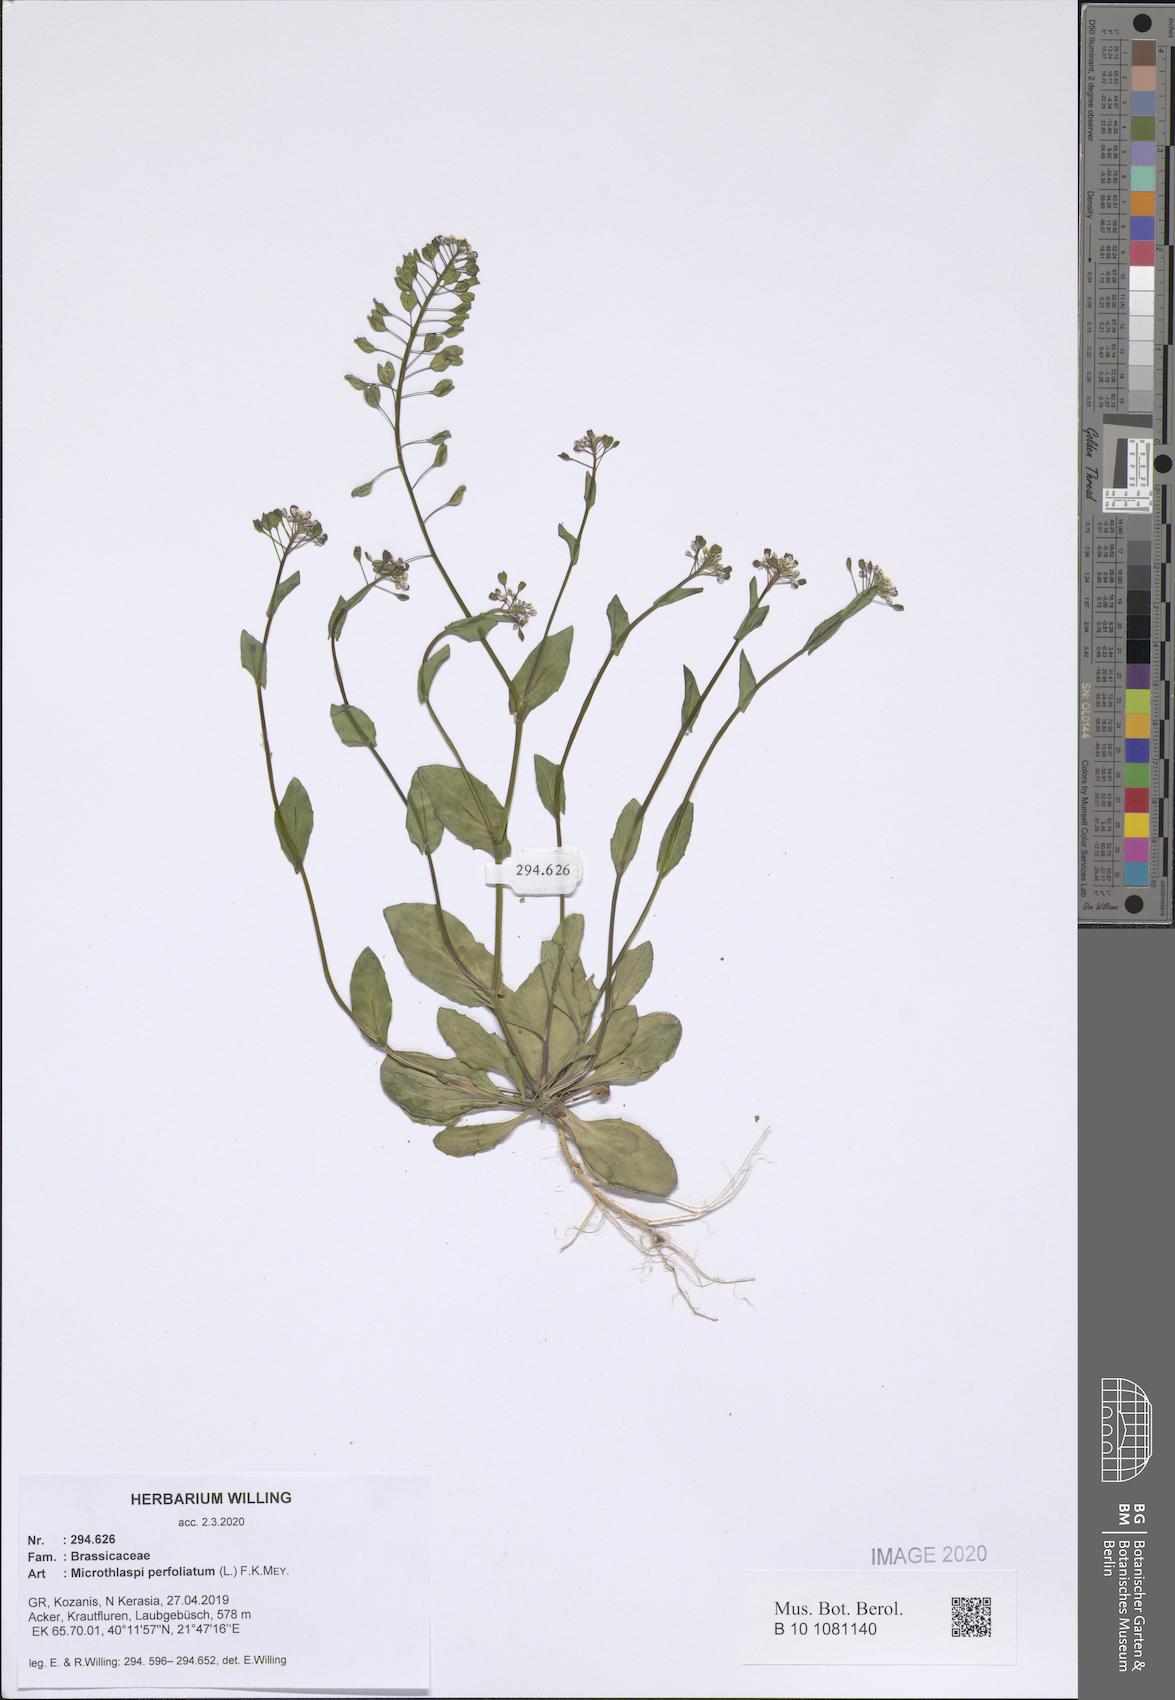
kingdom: Plantae
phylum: Tracheophyta
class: Magnoliopsida
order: Brassicales
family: Brassicaceae
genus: Noccaea
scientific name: Noccaea perfoliata
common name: Perfoliate pennycress
